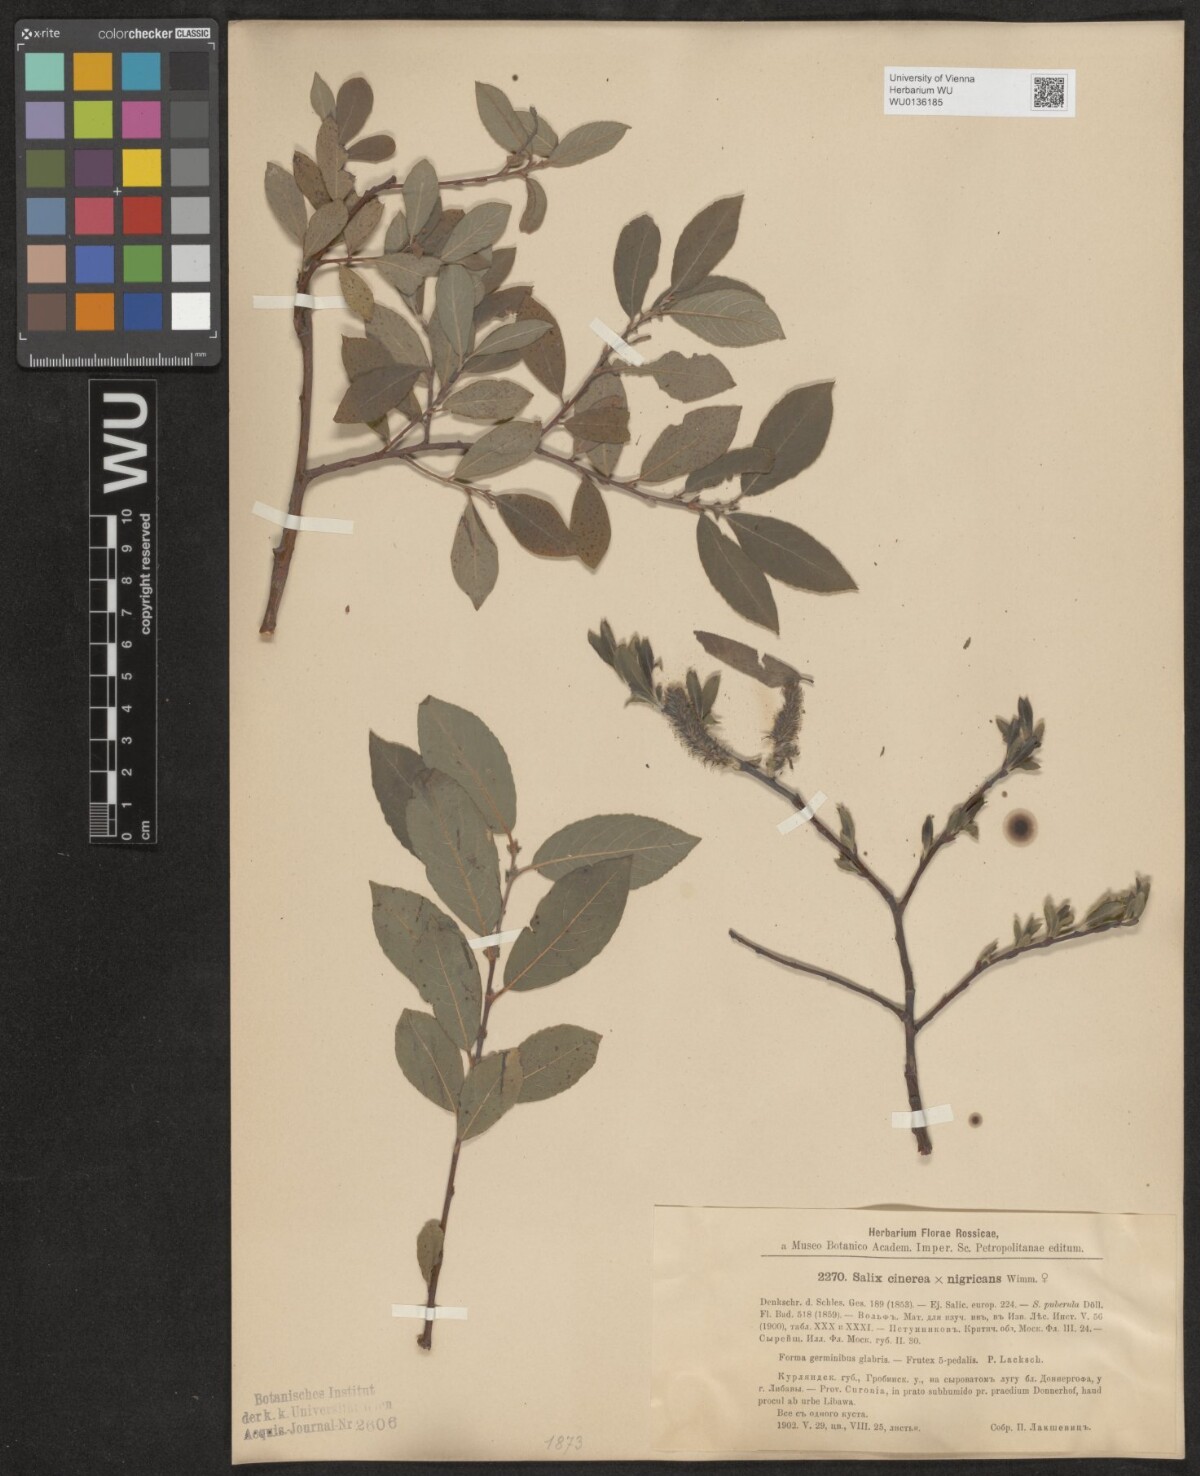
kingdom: Plantae
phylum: Tracheophyta
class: Magnoliopsida
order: Malpighiales
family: Salicaceae
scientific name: Salicaceae
